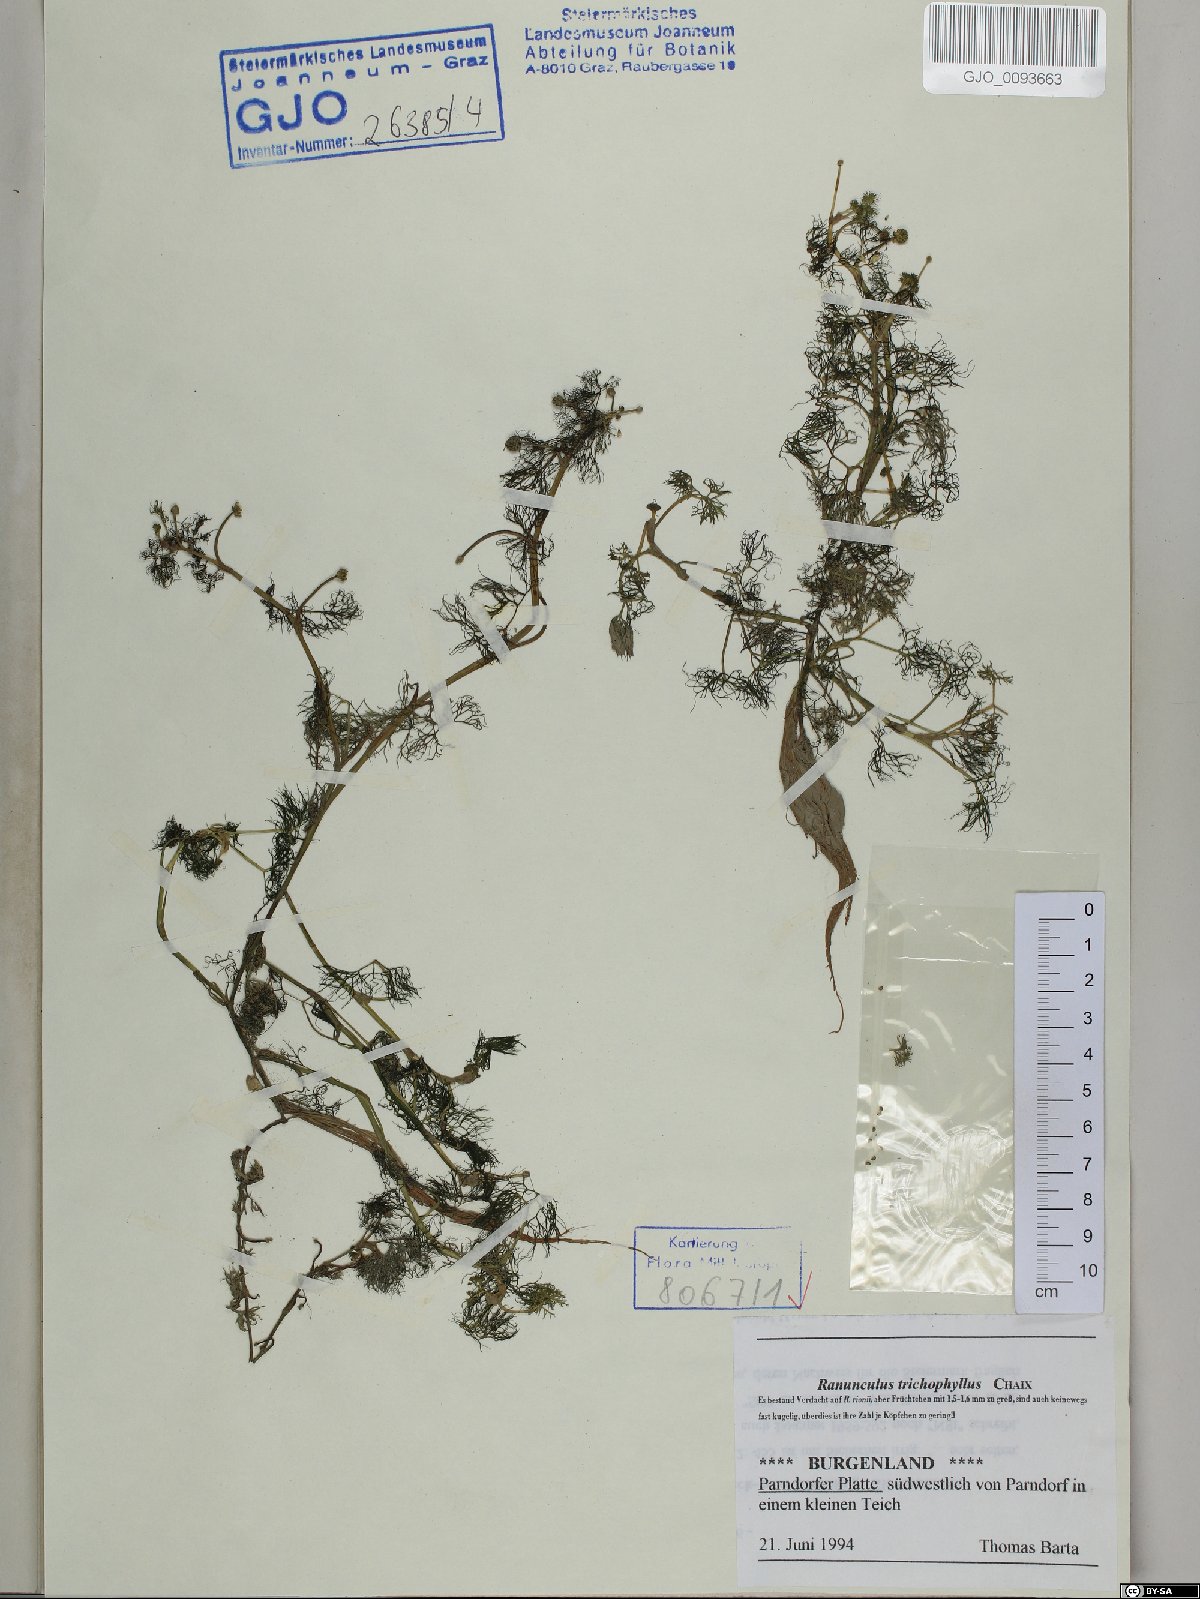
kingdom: Plantae
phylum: Tracheophyta
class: Magnoliopsida
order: Ranunculales
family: Ranunculaceae
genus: Ranunculus
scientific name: Ranunculus trichophyllus
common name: Thread-leaved water-crowfoot
